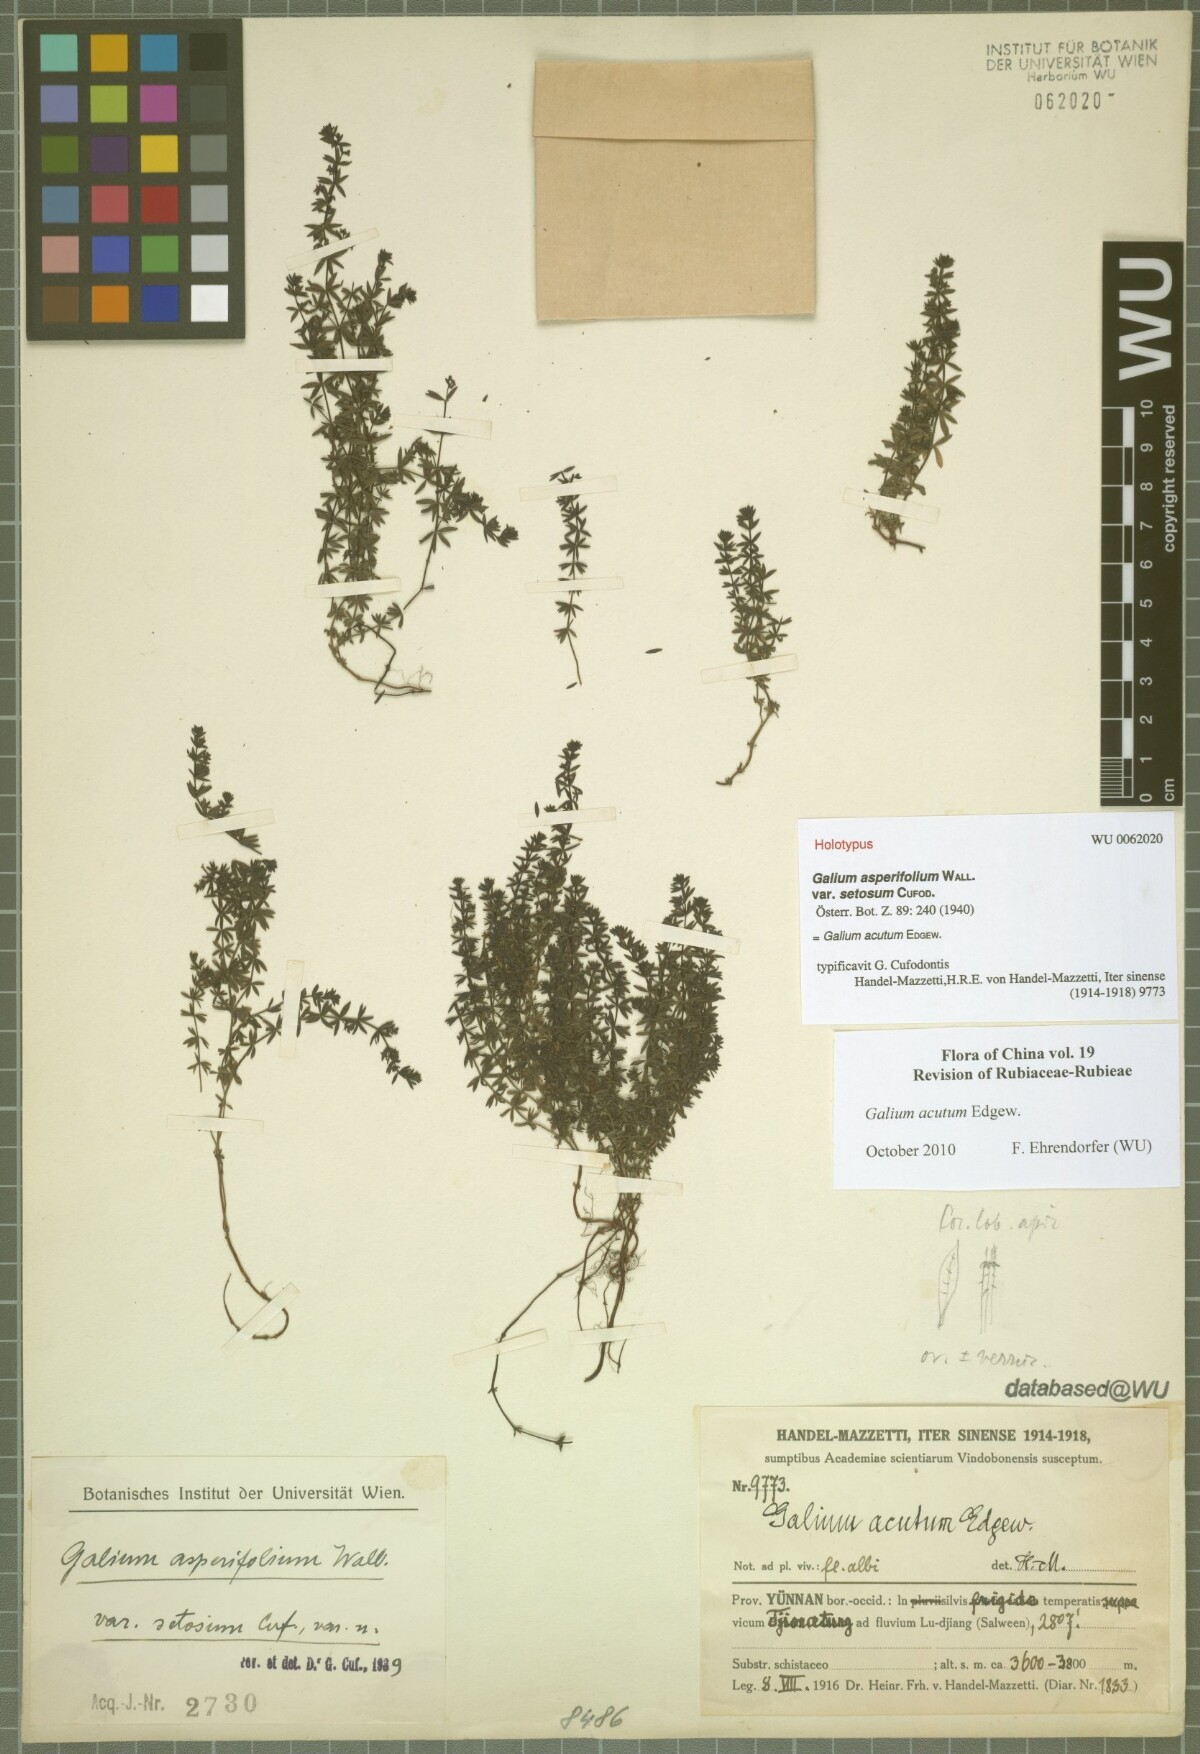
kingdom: Plantae
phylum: Tracheophyta
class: Magnoliopsida
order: Gentianales
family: Rubiaceae
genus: Galium
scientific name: Galium acutum
